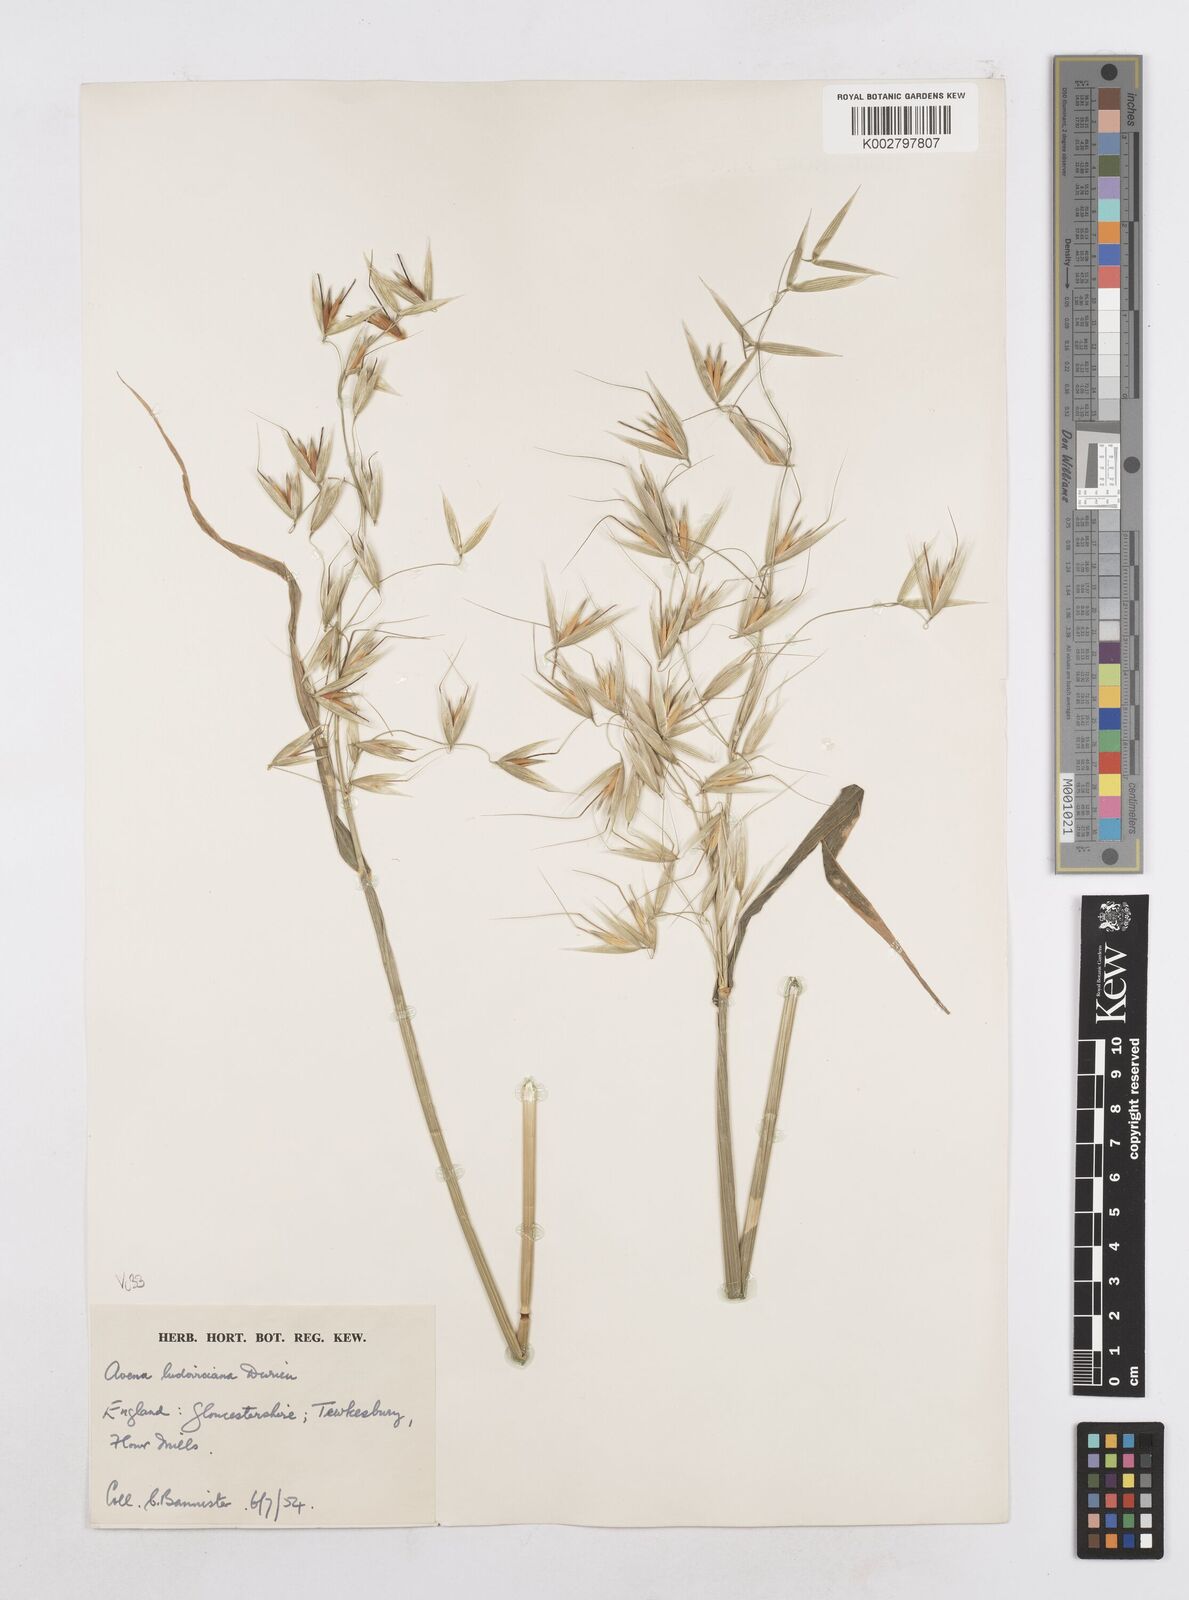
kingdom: Plantae
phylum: Tracheophyta
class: Liliopsida
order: Poales
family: Poaceae
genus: Avena
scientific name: Avena sterilis
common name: Animated oat
